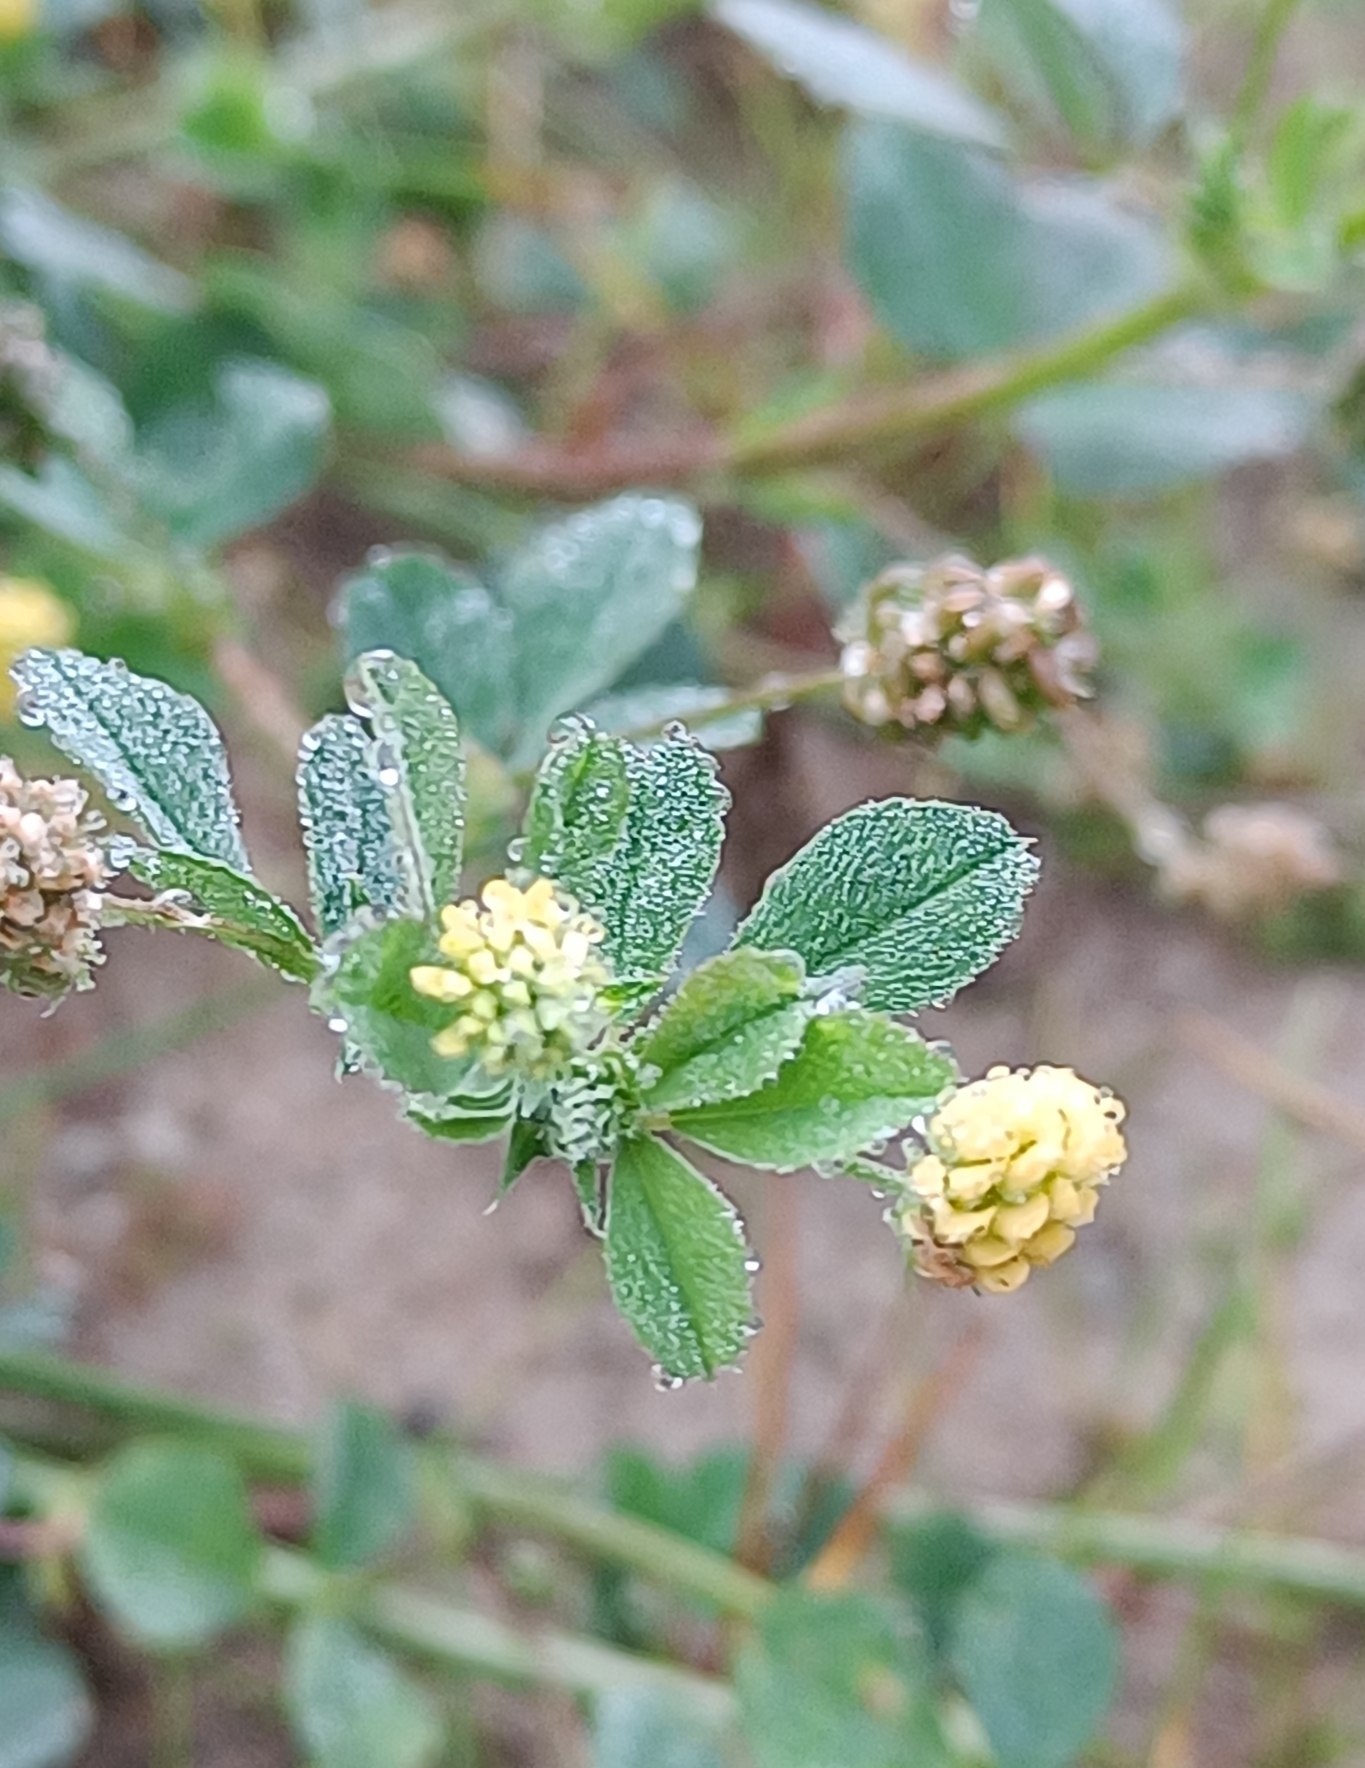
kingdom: Plantae
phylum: Tracheophyta
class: Magnoliopsida
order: Fabales
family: Fabaceae
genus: Medicago
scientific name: Medicago lupulina
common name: Humle-sneglebælg
